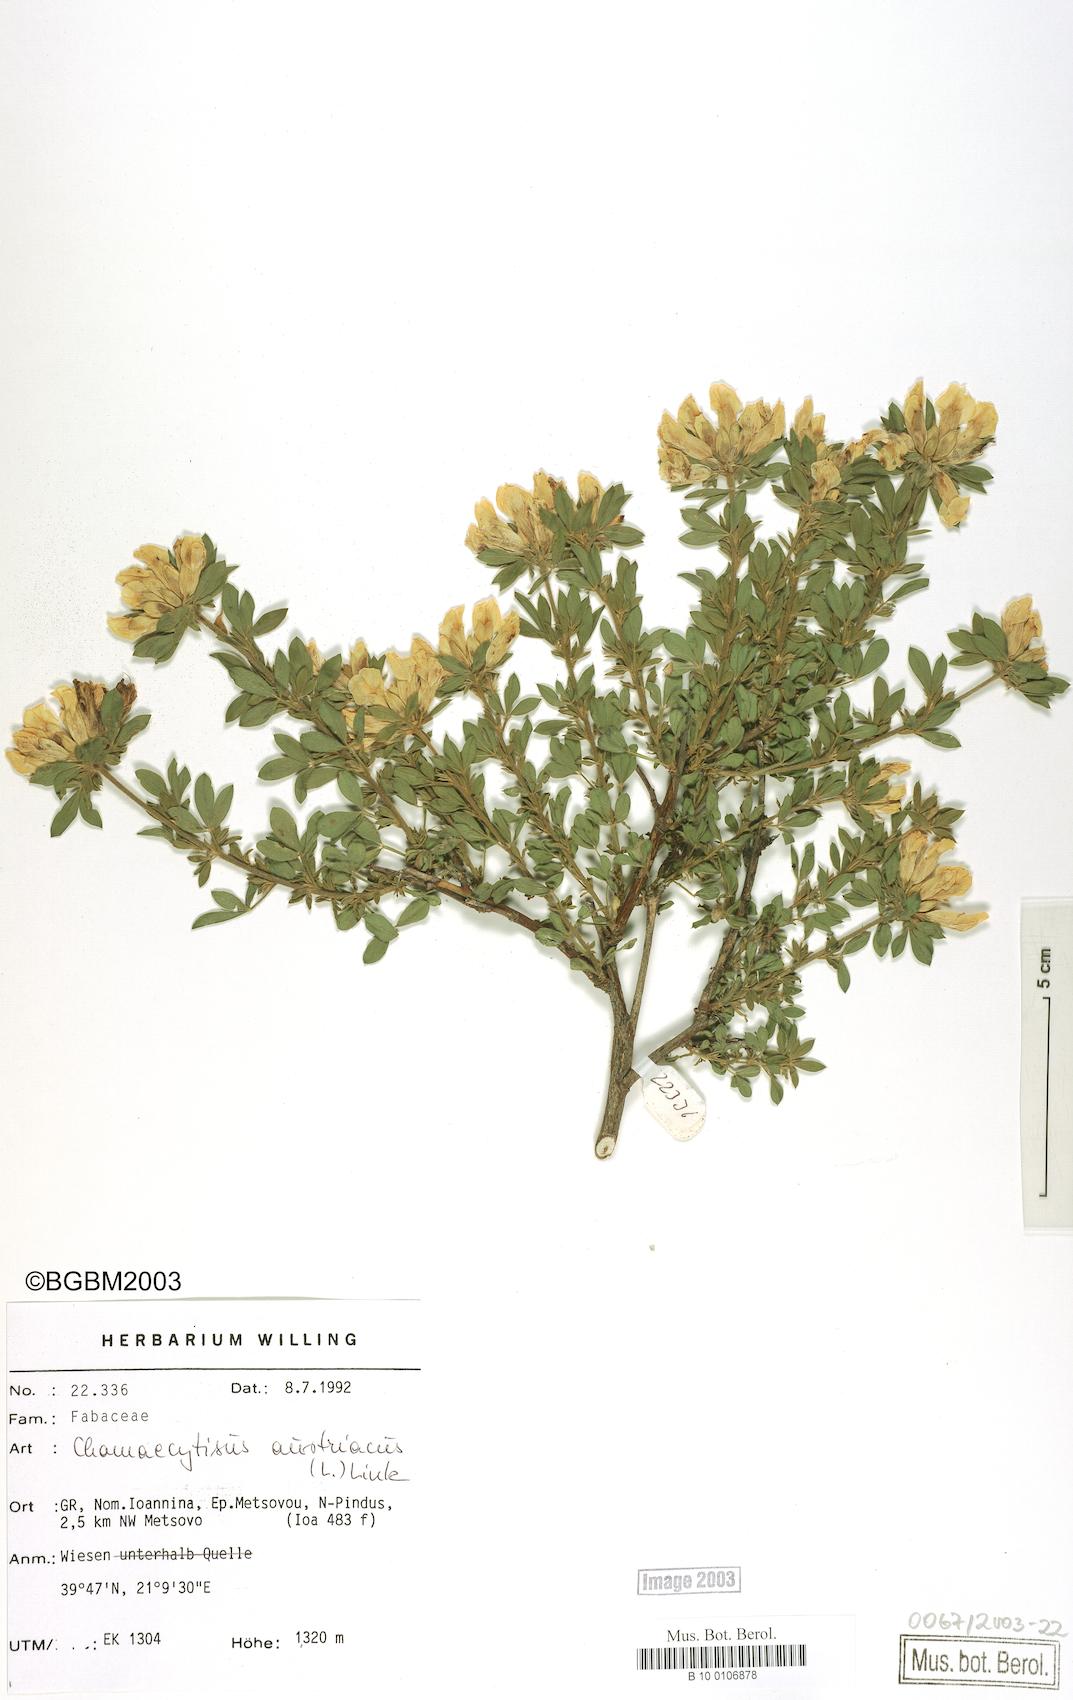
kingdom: Plantae
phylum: Tracheophyta
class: Magnoliopsida
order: Fabales
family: Fabaceae
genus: Chamaecytisus
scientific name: Chamaecytisus austriacus
